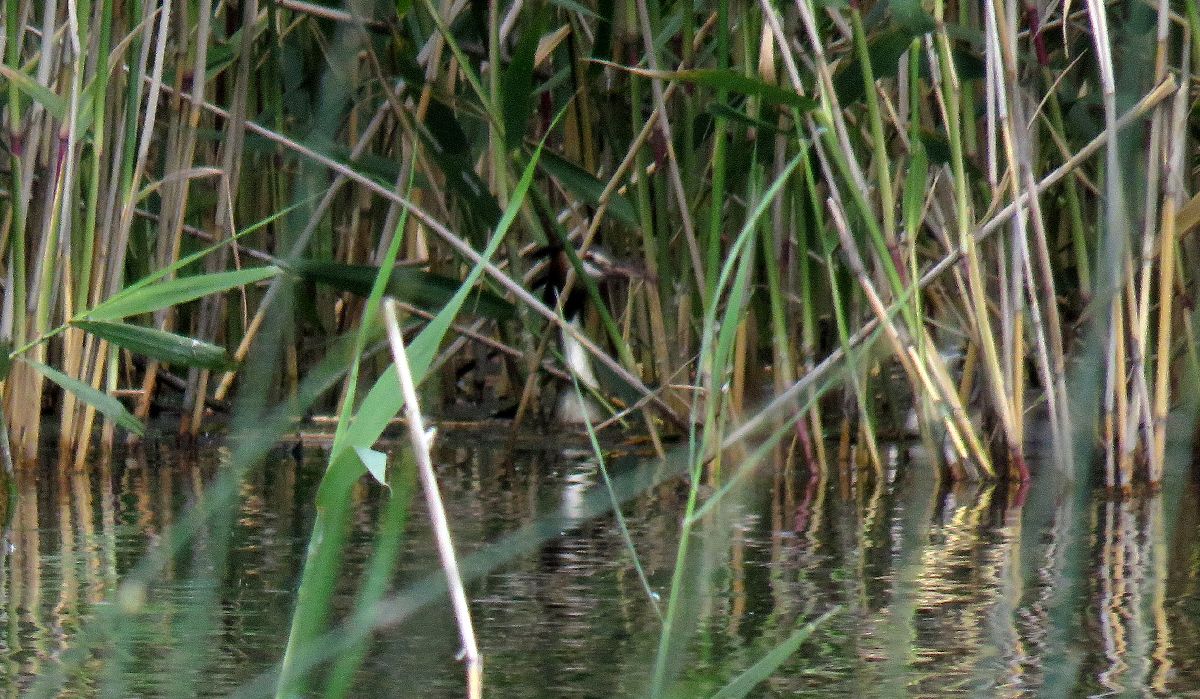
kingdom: Animalia
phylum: Chordata
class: Aves
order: Podicipediformes
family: Podicipedidae
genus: Podiceps
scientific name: Podiceps cristatus
